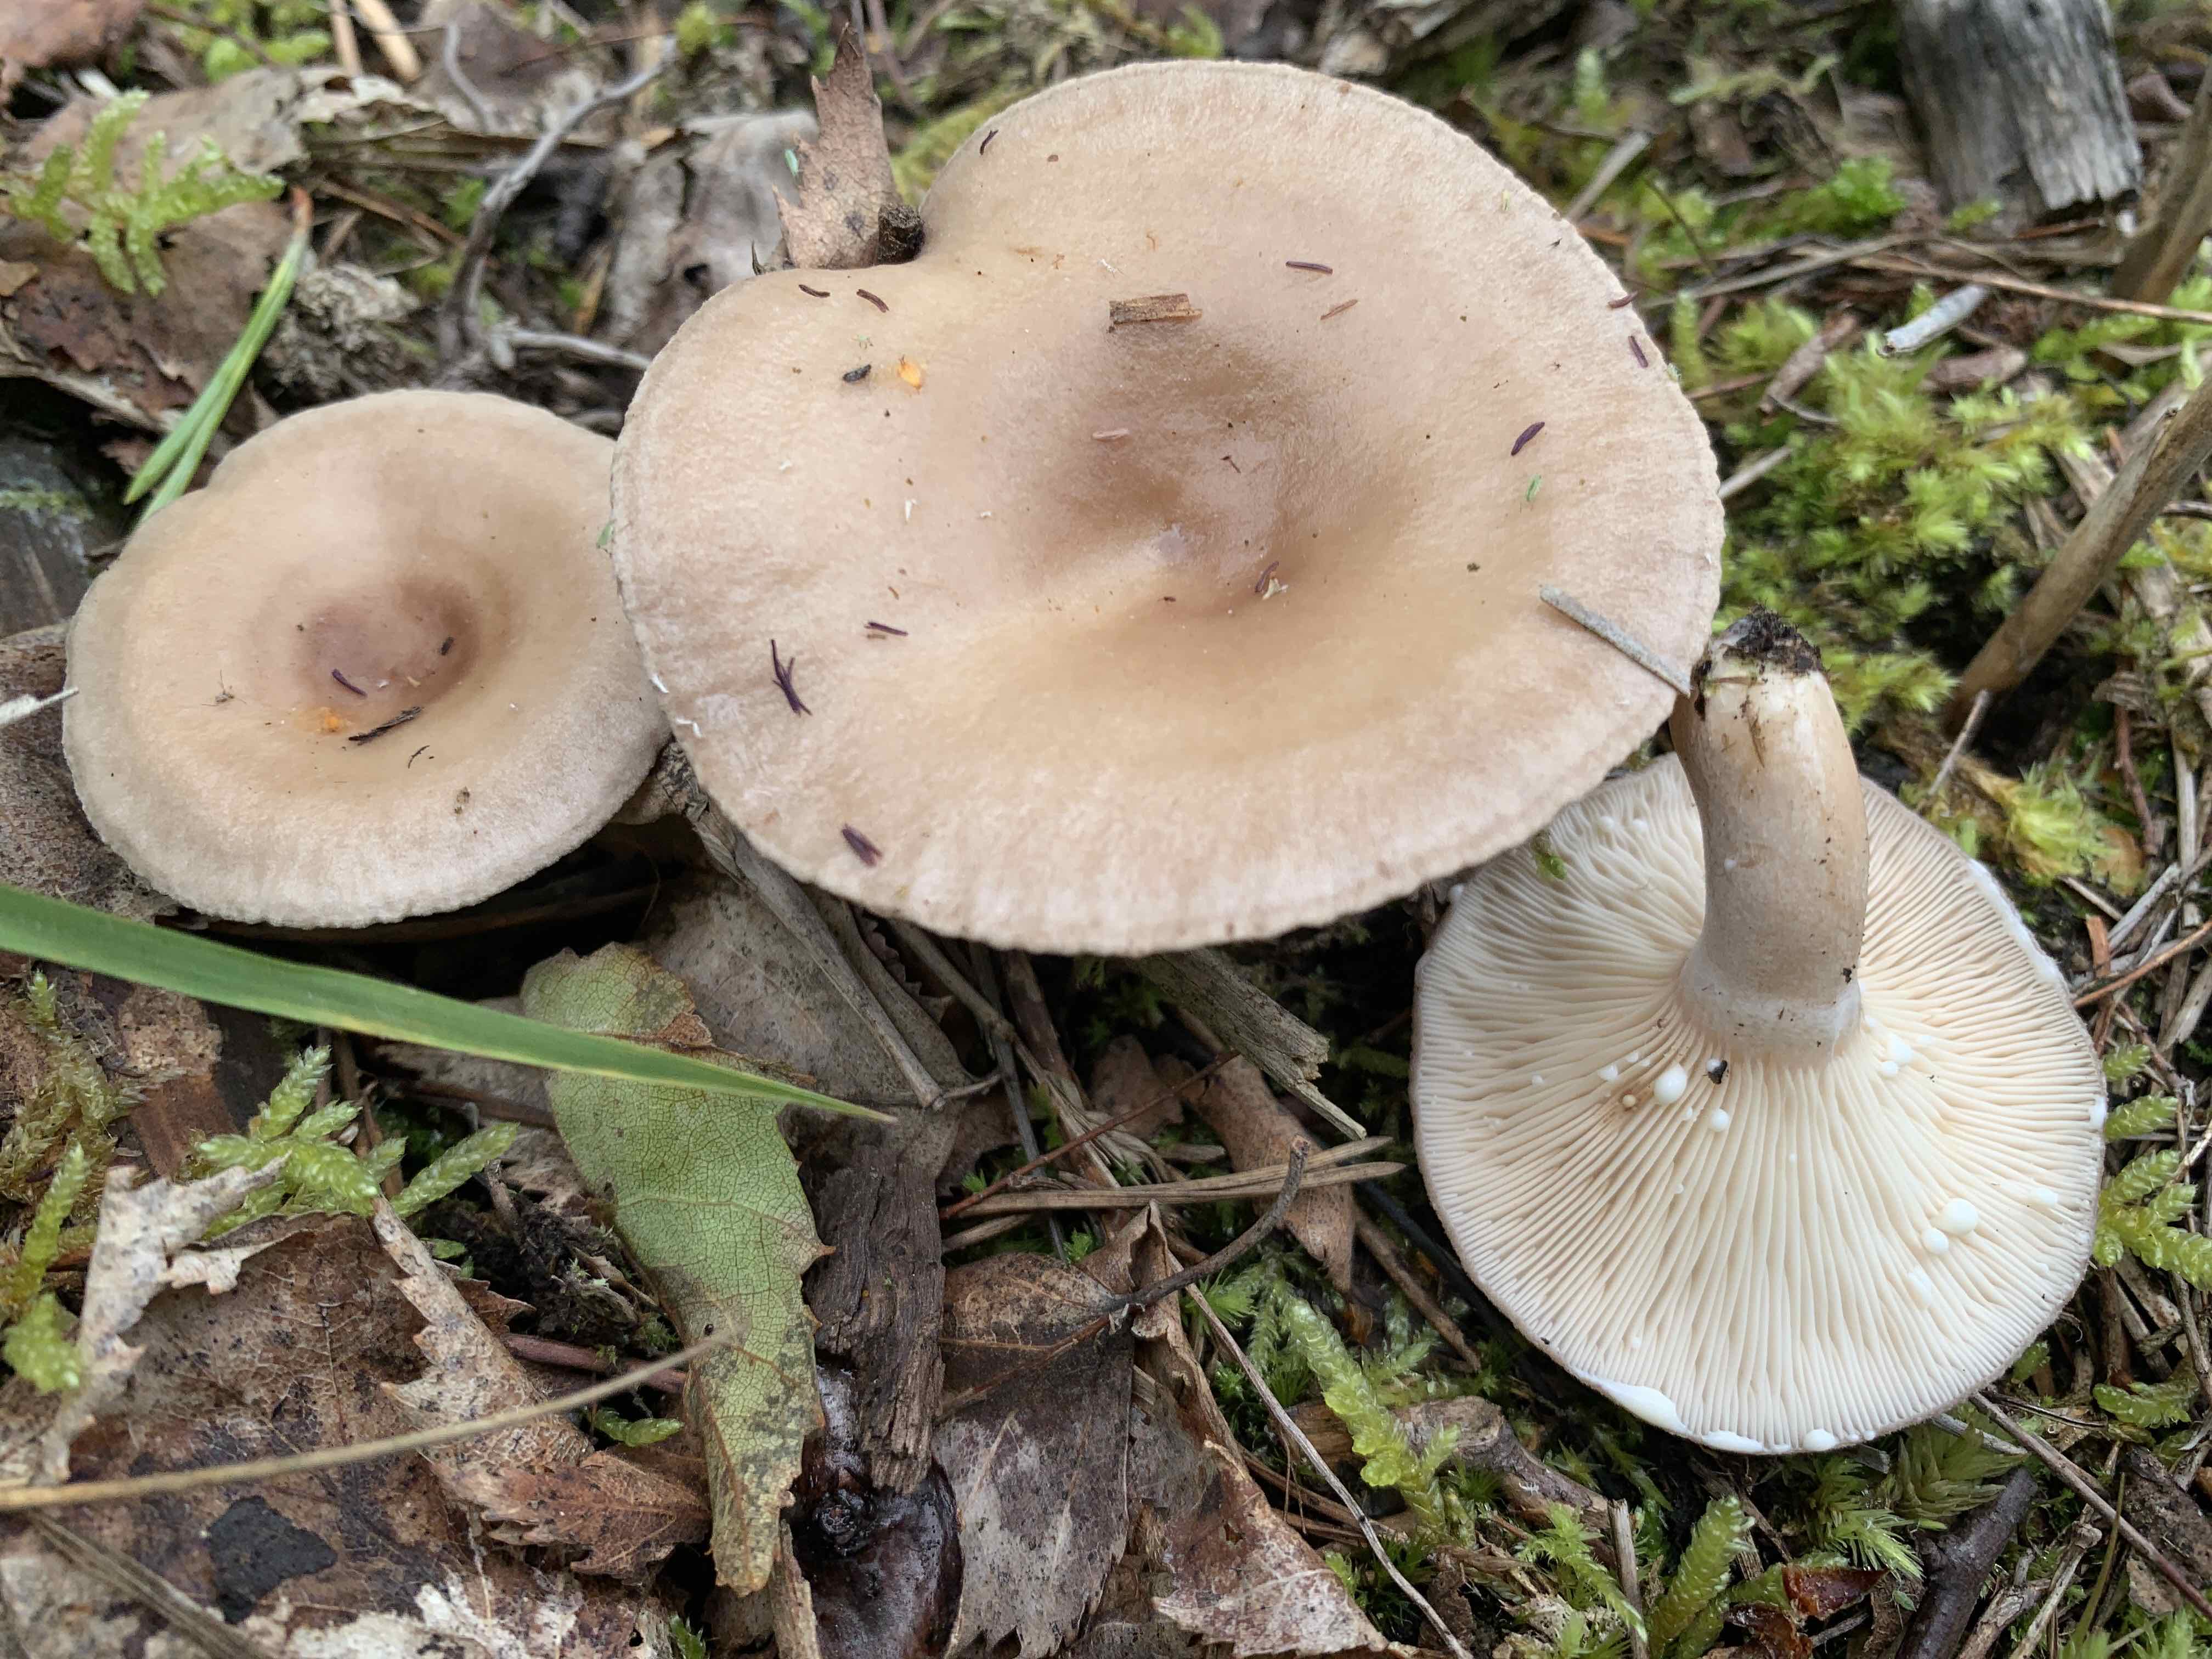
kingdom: Fungi
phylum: Basidiomycota
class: Agaricomycetes
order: Russulales
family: Russulaceae
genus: Lactarius
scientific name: Lactarius vietus
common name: violetgrå mælkehat
